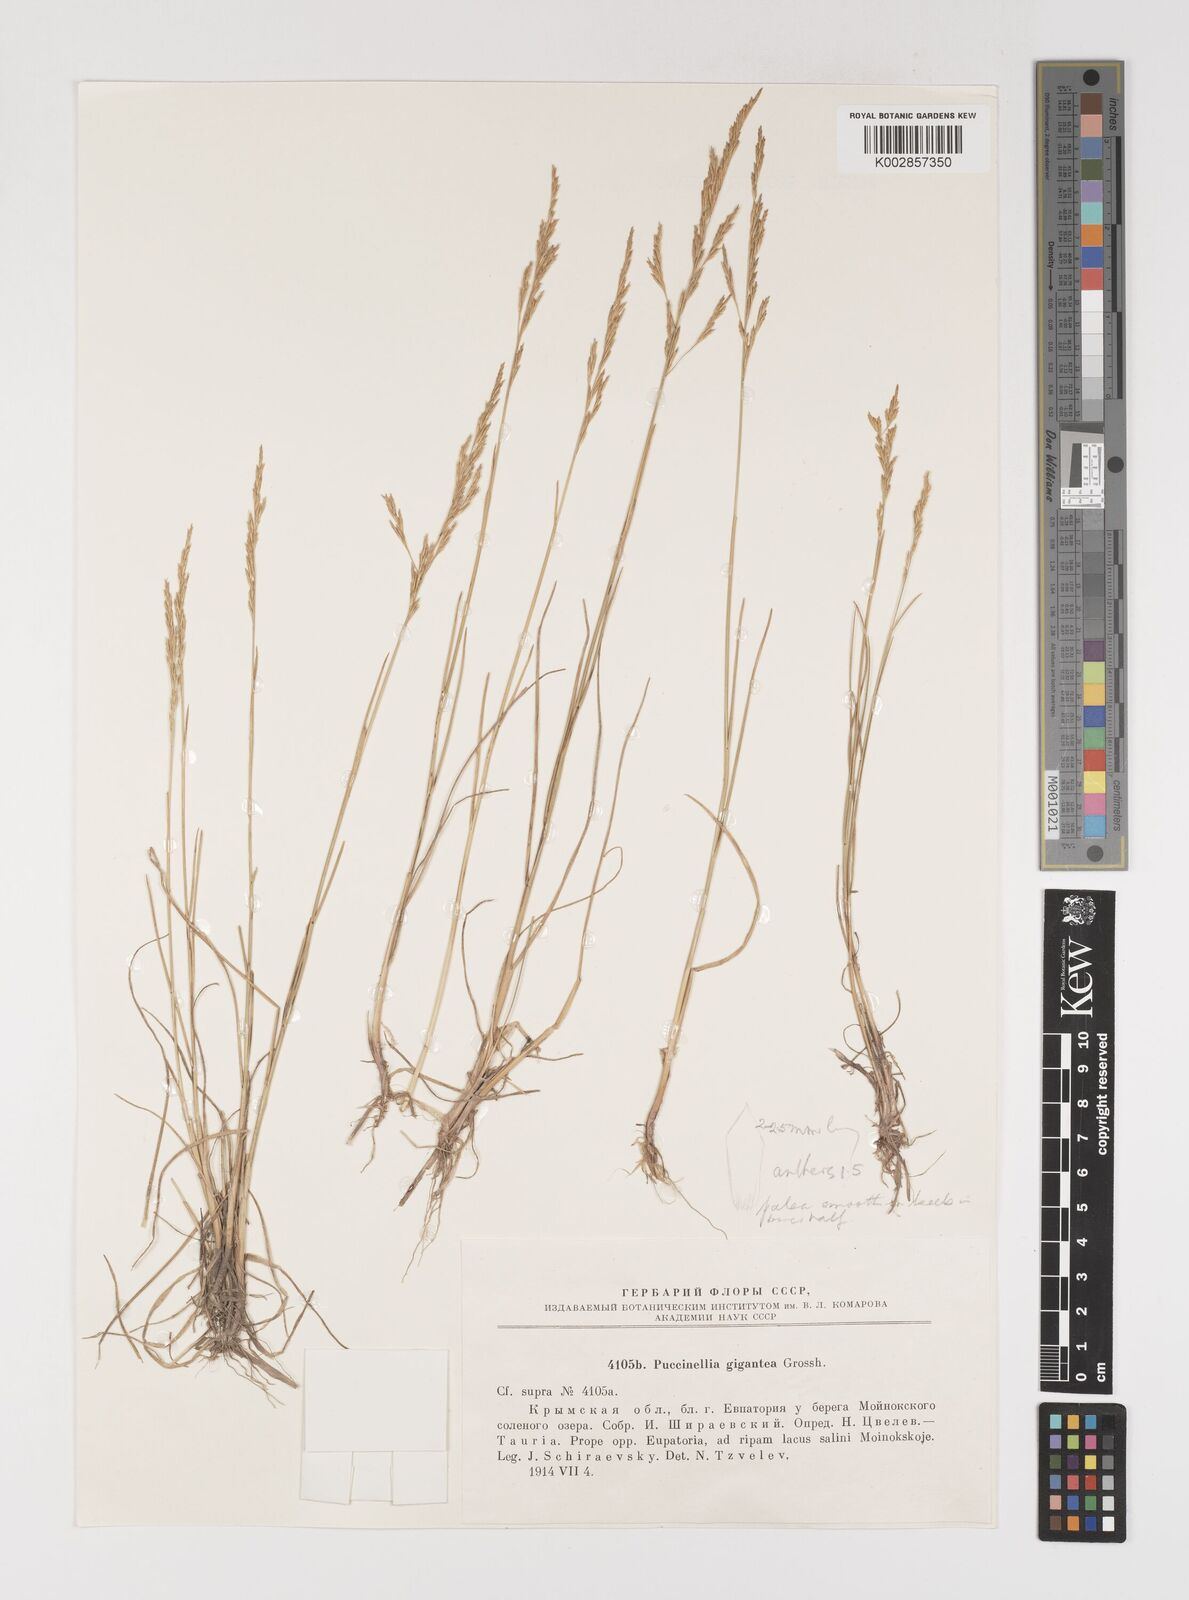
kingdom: Plantae
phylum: Tracheophyta
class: Liliopsida
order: Poales
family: Poaceae
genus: Puccinellia
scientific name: Puccinellia gigantea
